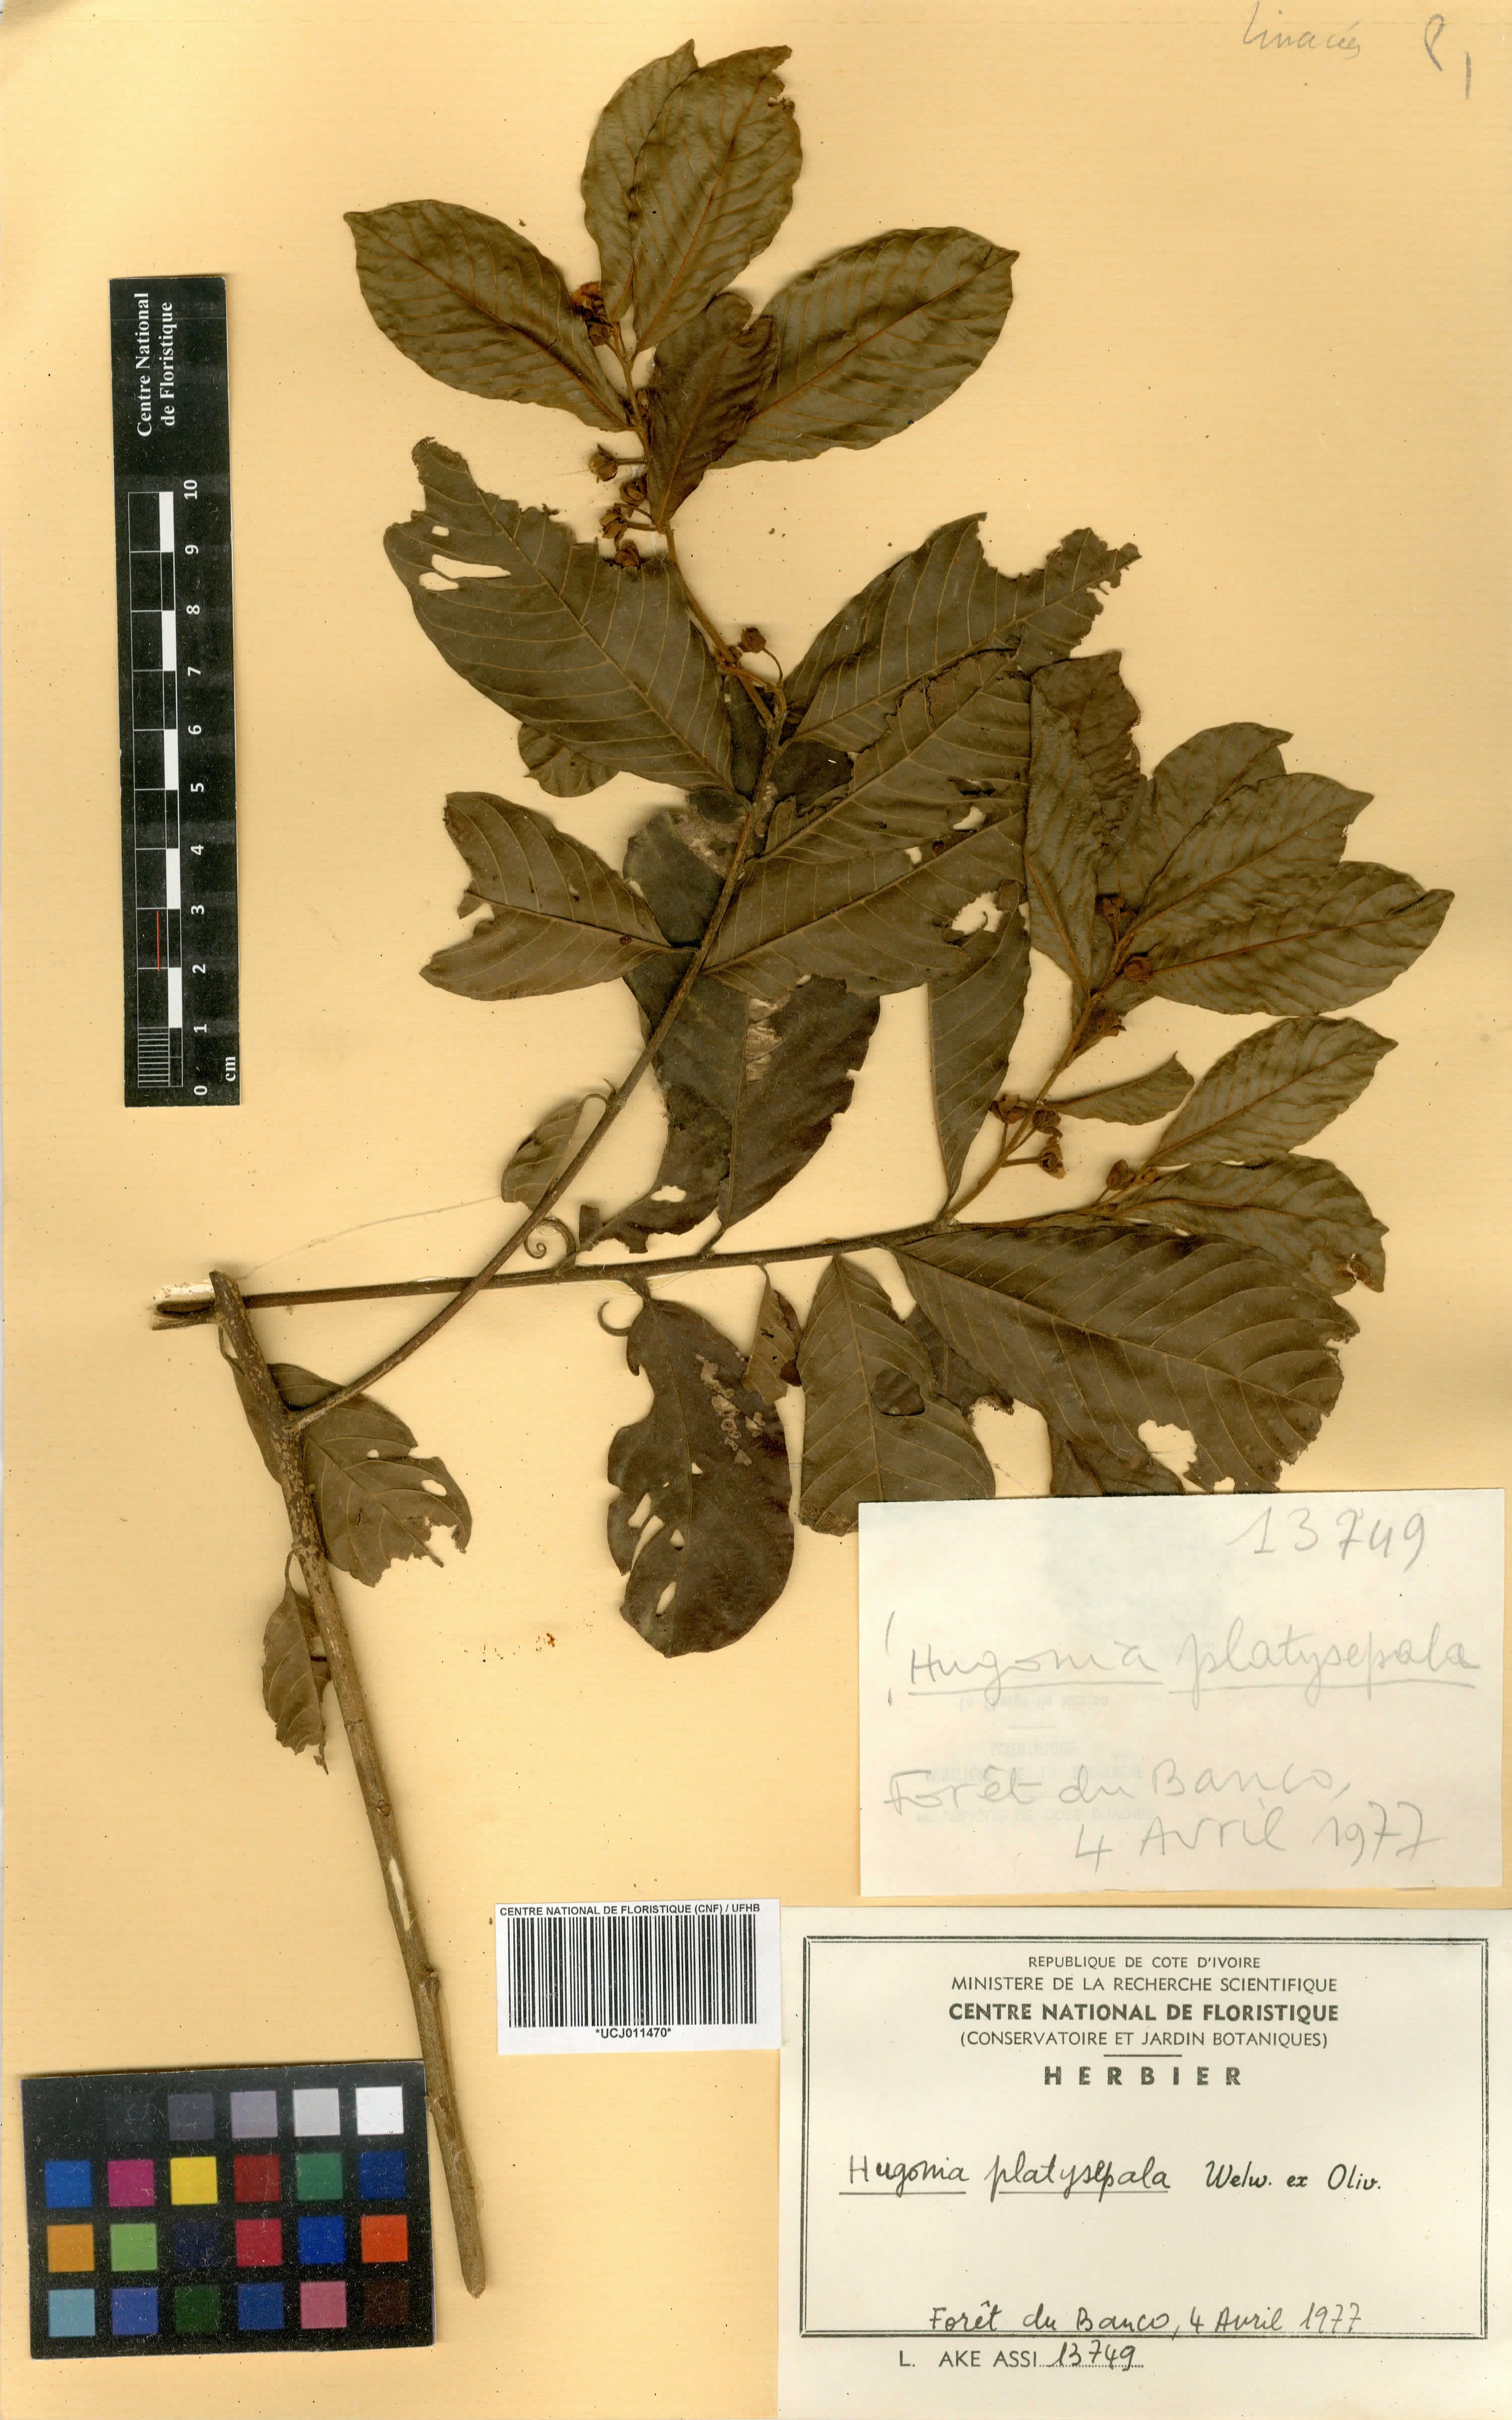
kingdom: Plantae
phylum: Tracheophyta
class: Magnoliopsida
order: Malpighiales
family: Linaceae
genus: Hugonia
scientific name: Hugonia platysepala
